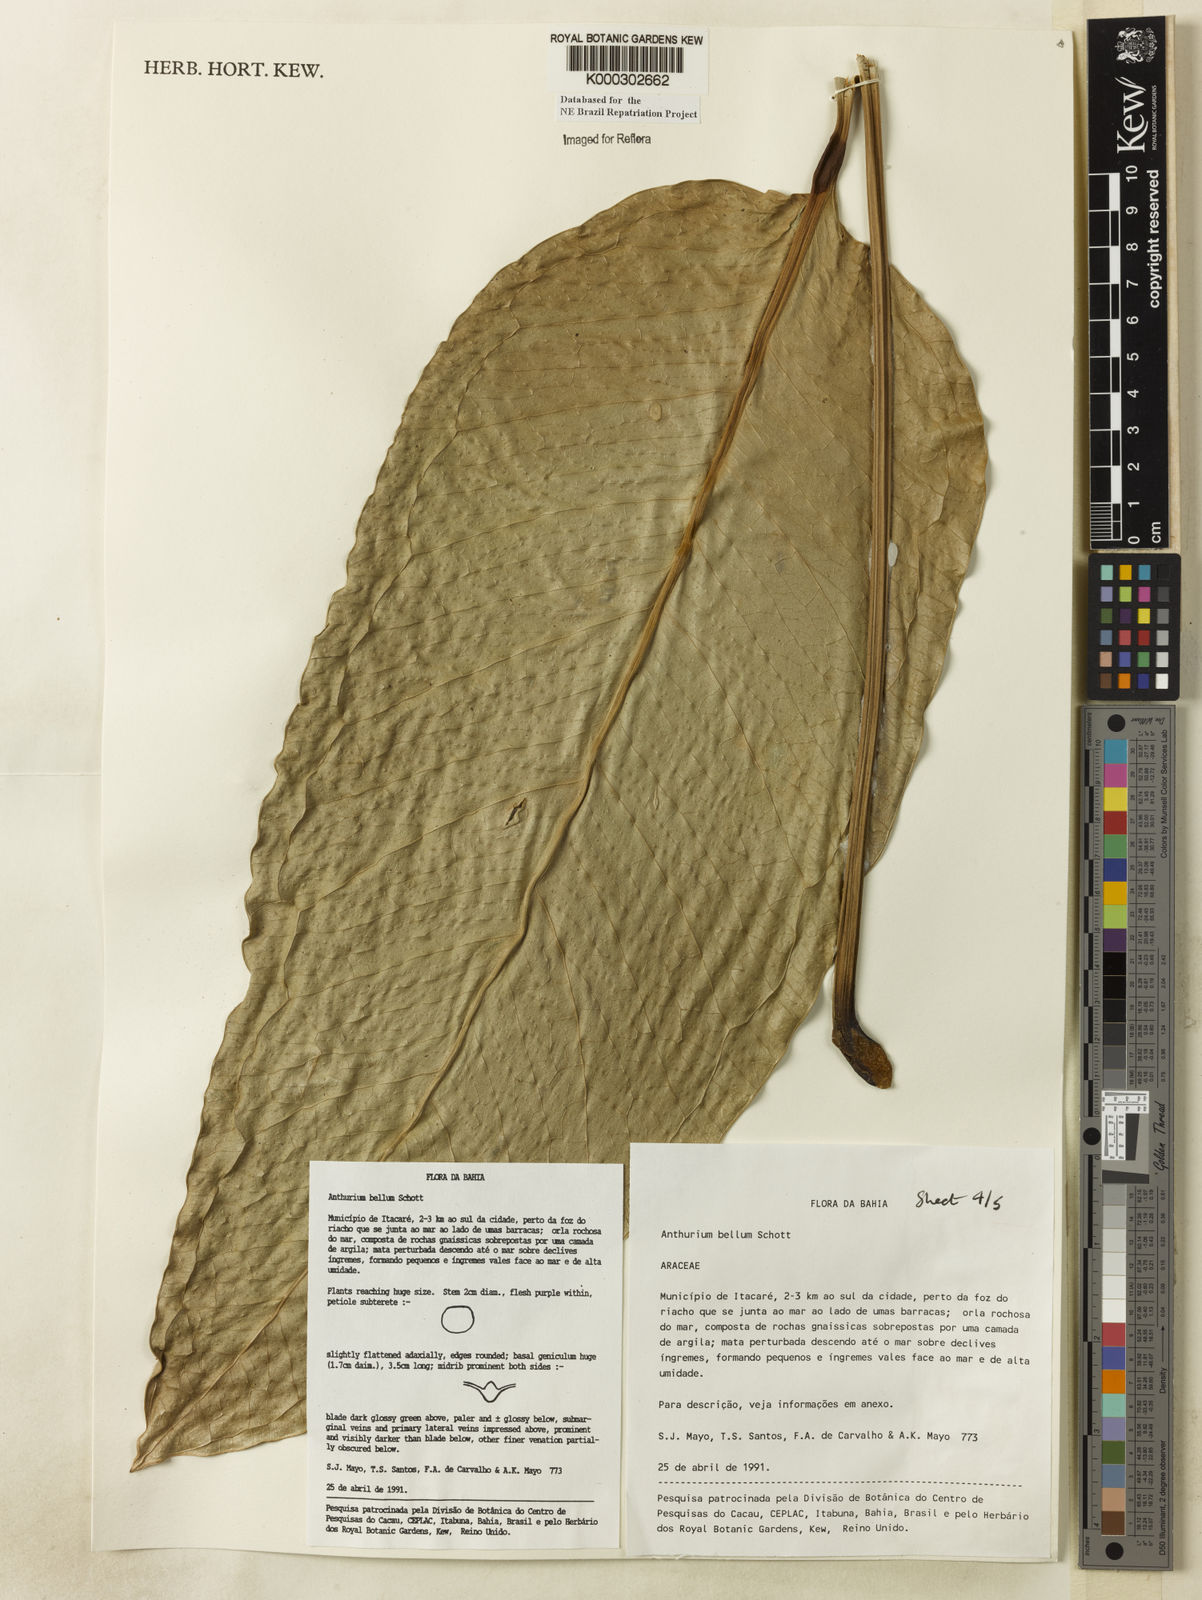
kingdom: Plantae
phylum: Tracheophyta
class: Liliopsida
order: Alismatales
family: Araceae
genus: Anthurium
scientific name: Anthurium bellum
